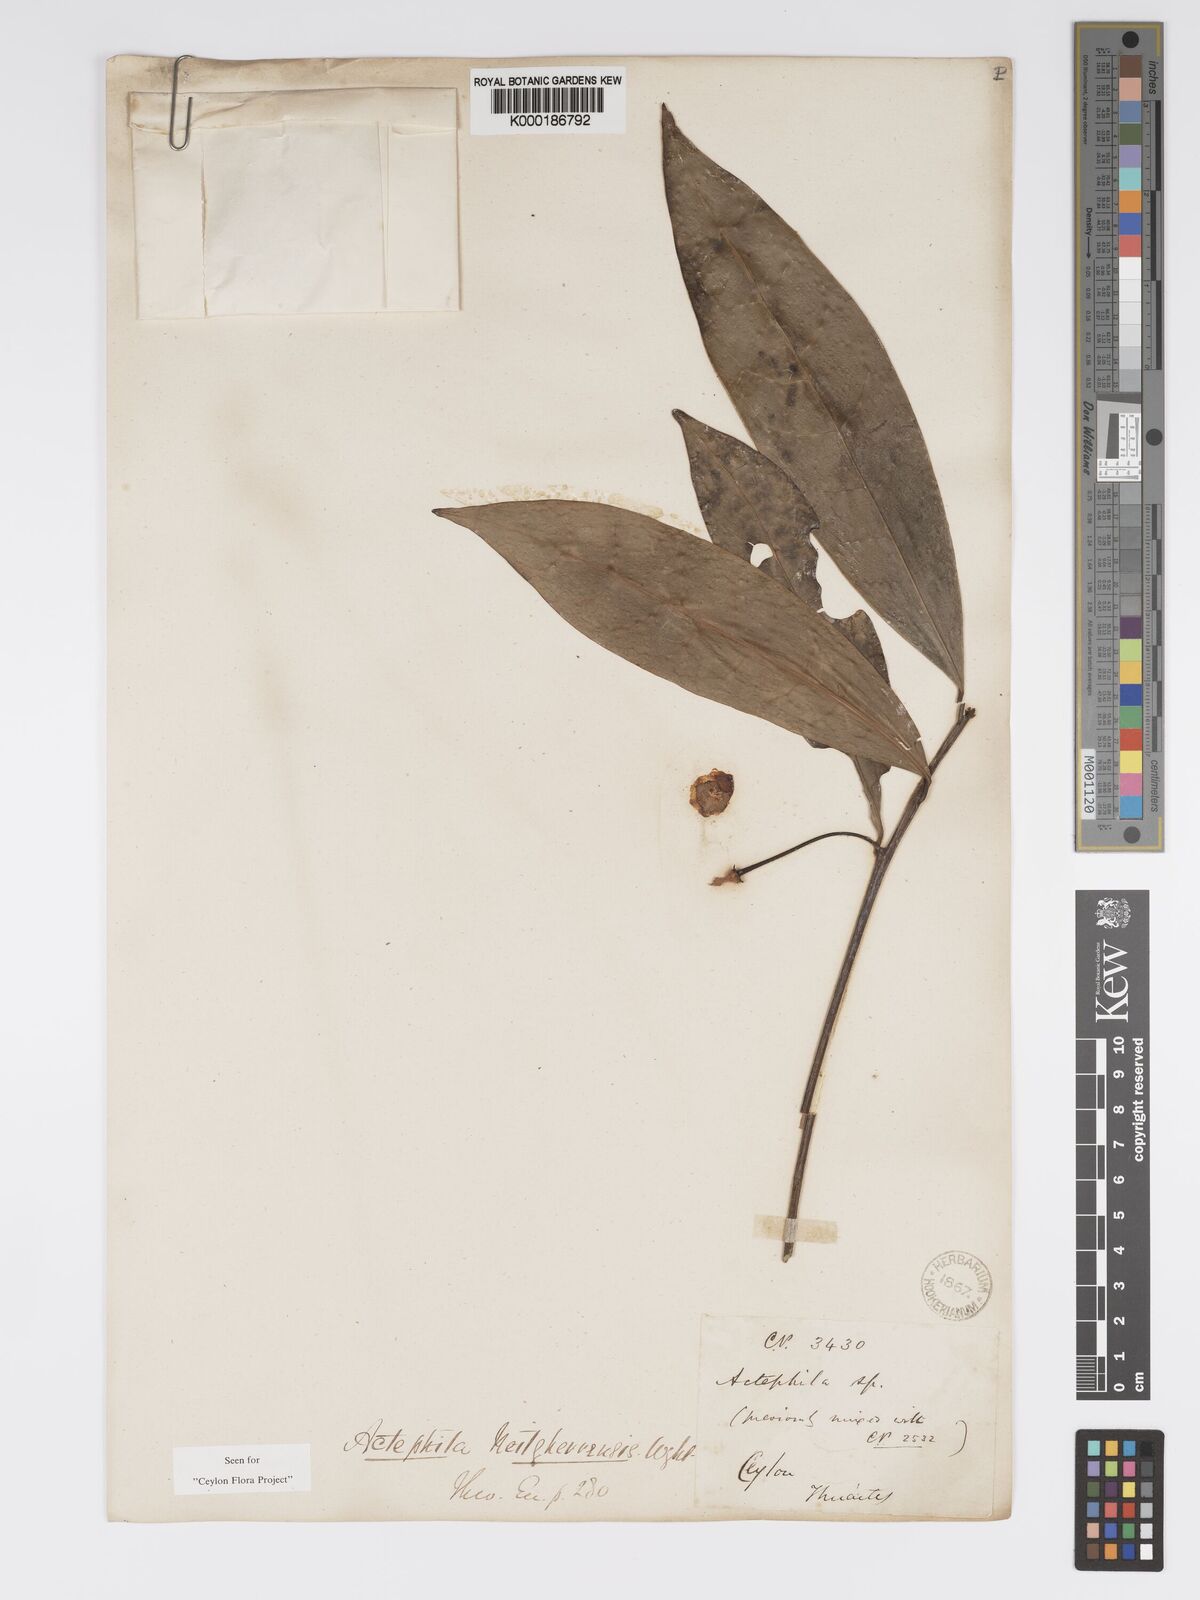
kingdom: Plantae
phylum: Tracheophyta
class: Magnoliopsida
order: Malpighiales
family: Phyllanthaceae
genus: Actephila
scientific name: Actephila excelsa
